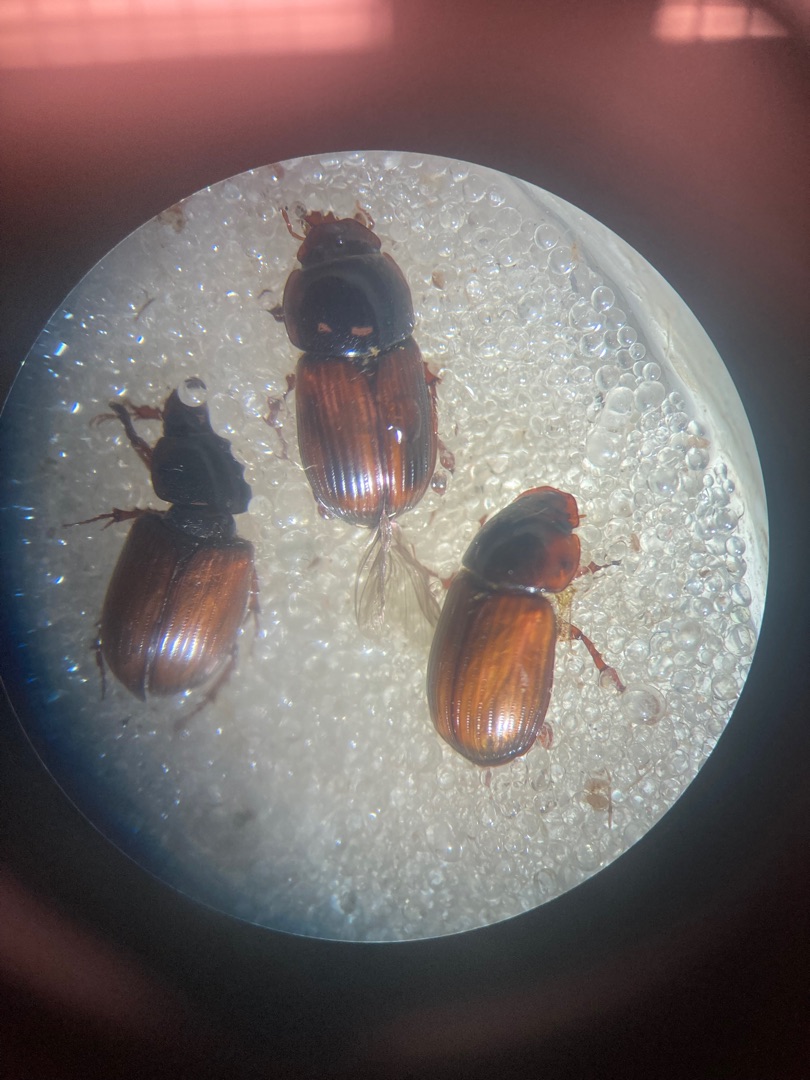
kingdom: Animalia
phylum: Arthropoda
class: Insecta
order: Coleoptera
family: Scarabaeidae
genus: Bodilopsis
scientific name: Bodilopsis rufus
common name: Mahognibrun møgbille
